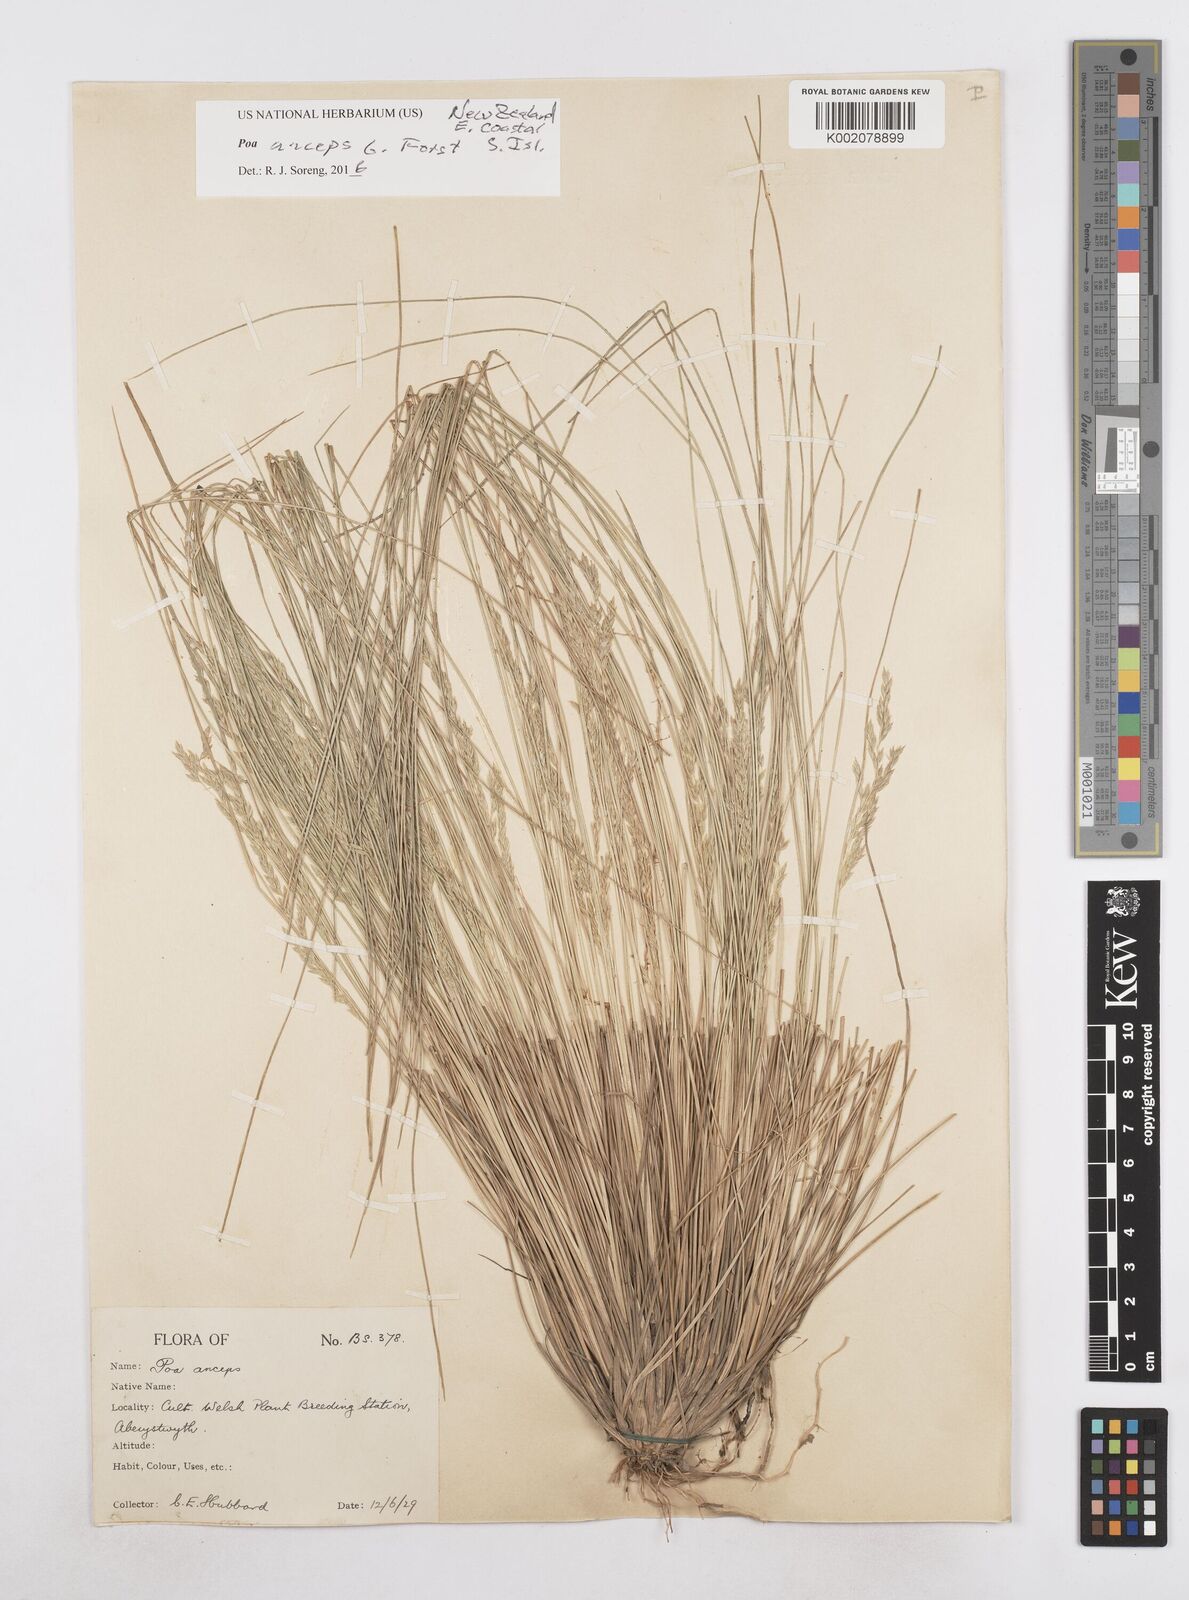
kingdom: Plantae
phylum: Tracheophyta
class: Liliopsida
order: Poales
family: Poaceae
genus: Poa
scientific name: Poa anceps
